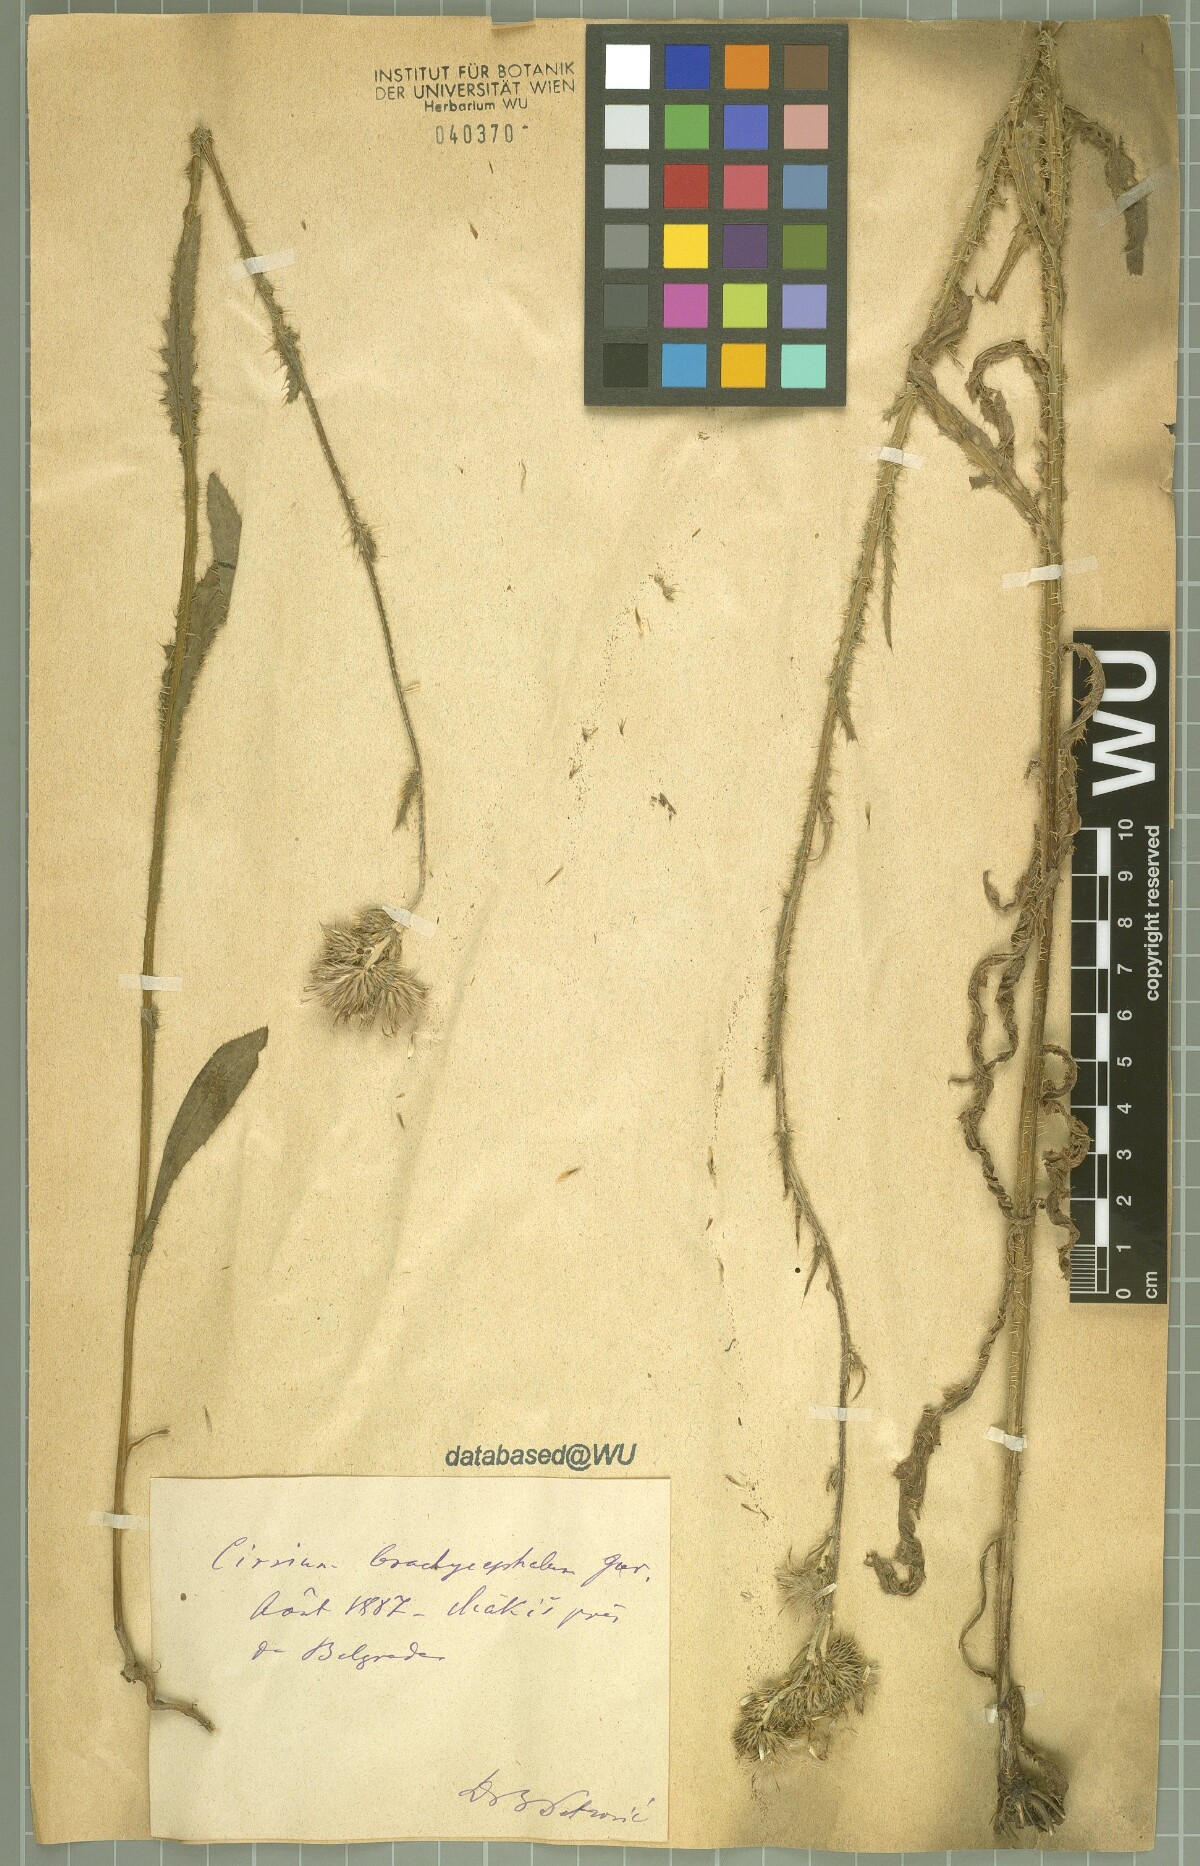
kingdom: Plantae
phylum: Tracheophyta
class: Magnoliopsida
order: Asterales
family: Asteraceae
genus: Cirsium
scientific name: Cirsium brachycephalum
